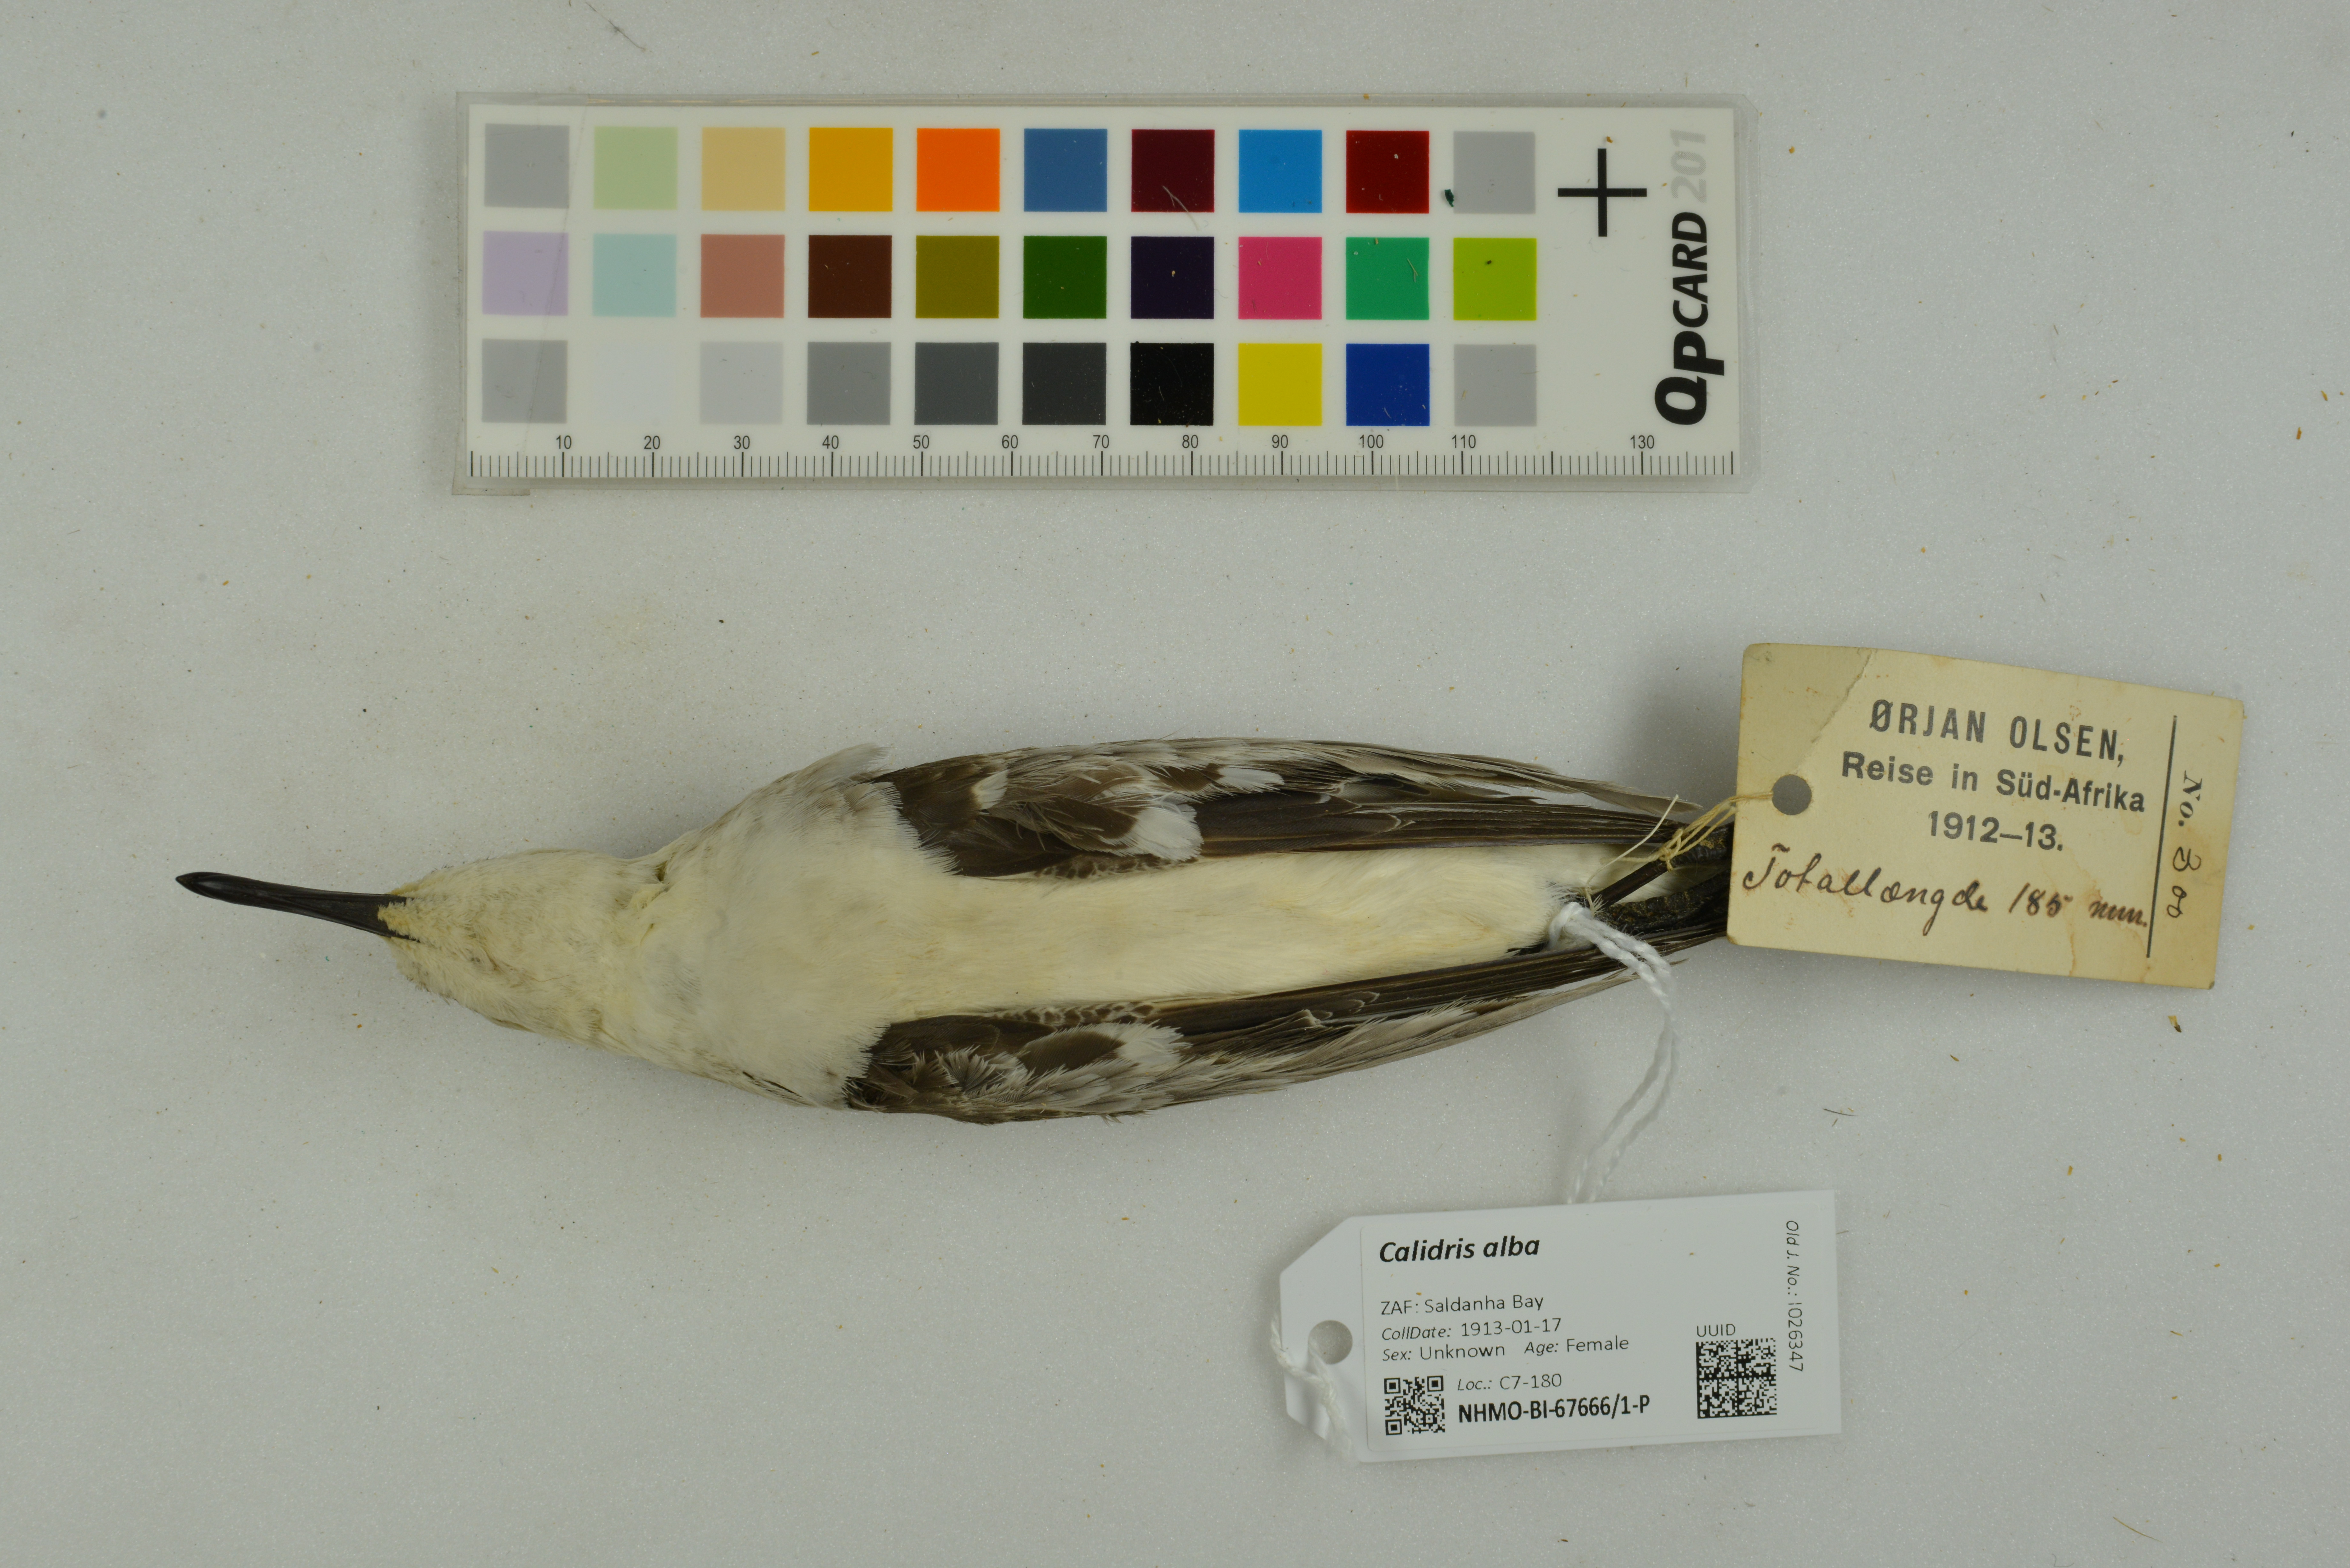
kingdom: Animalia
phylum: Chordata
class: Aves
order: Charadriiformes
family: Scolopacidae
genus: Calidris
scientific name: Calidris alba
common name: Sanderling
